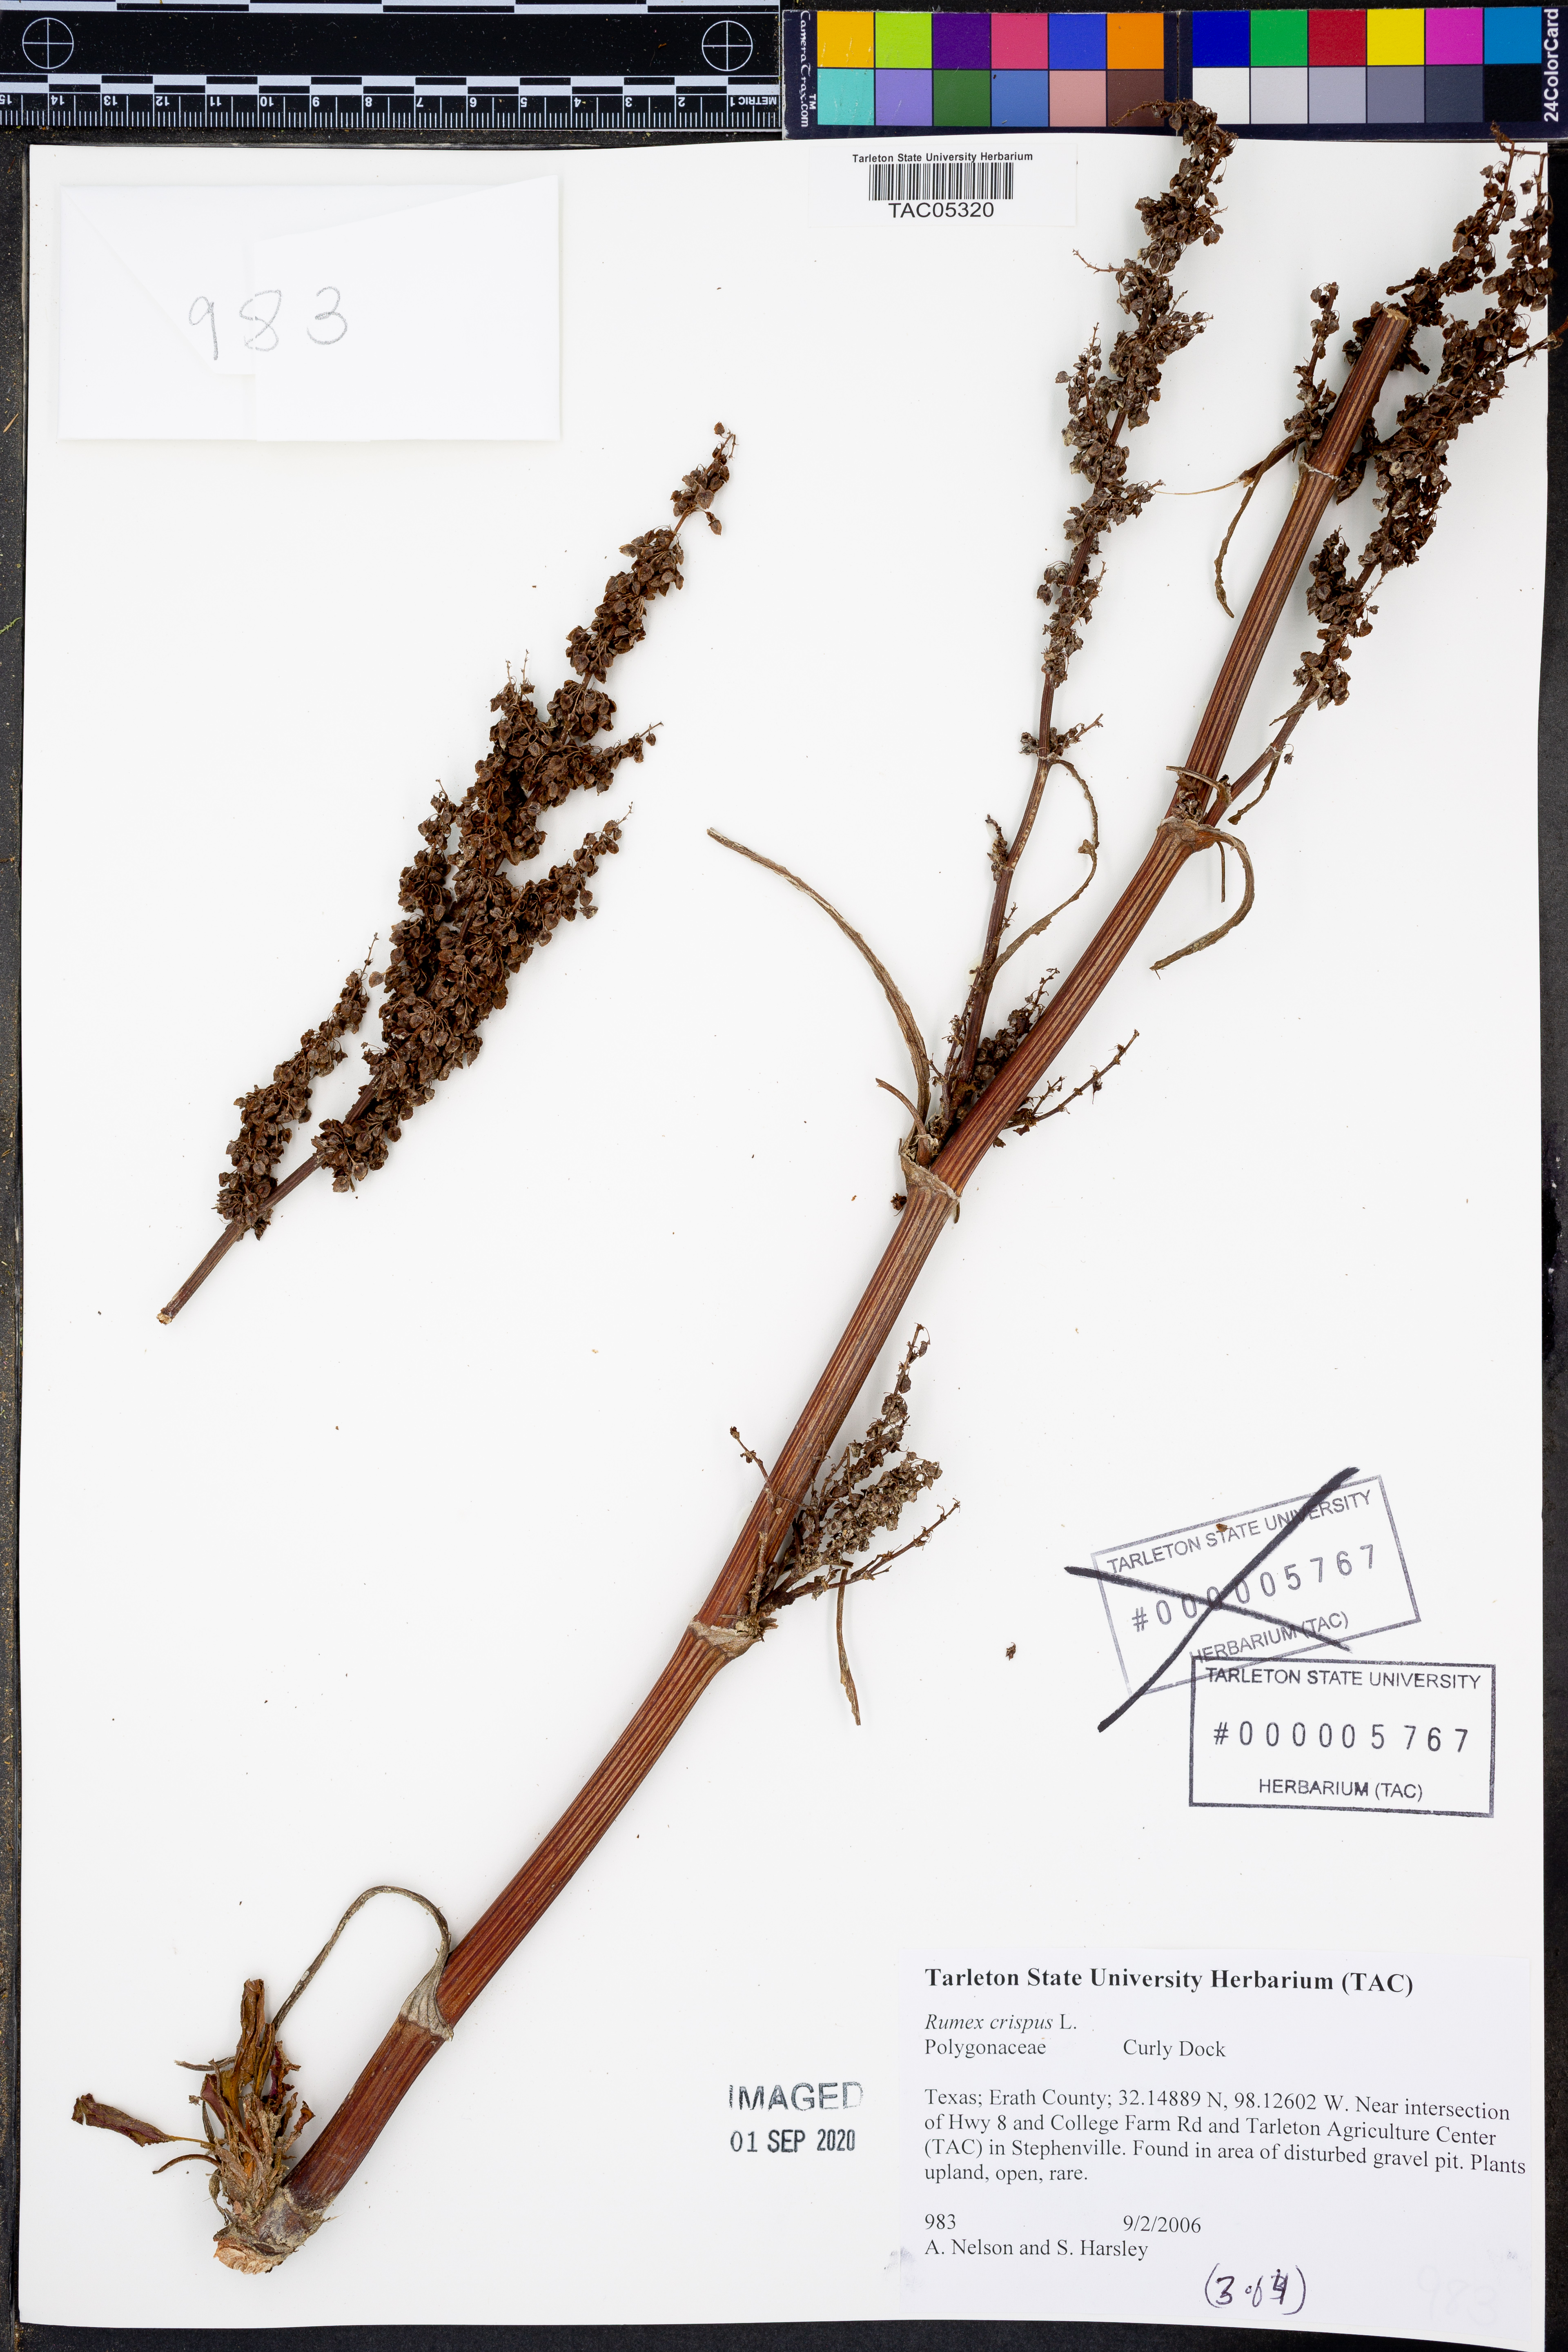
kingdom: Plantae
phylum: Tracheophyta
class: Magnoliopsida
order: Caryophyllales
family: Polygonaceae
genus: Rumex
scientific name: Rumex crispus
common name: Curled dock
